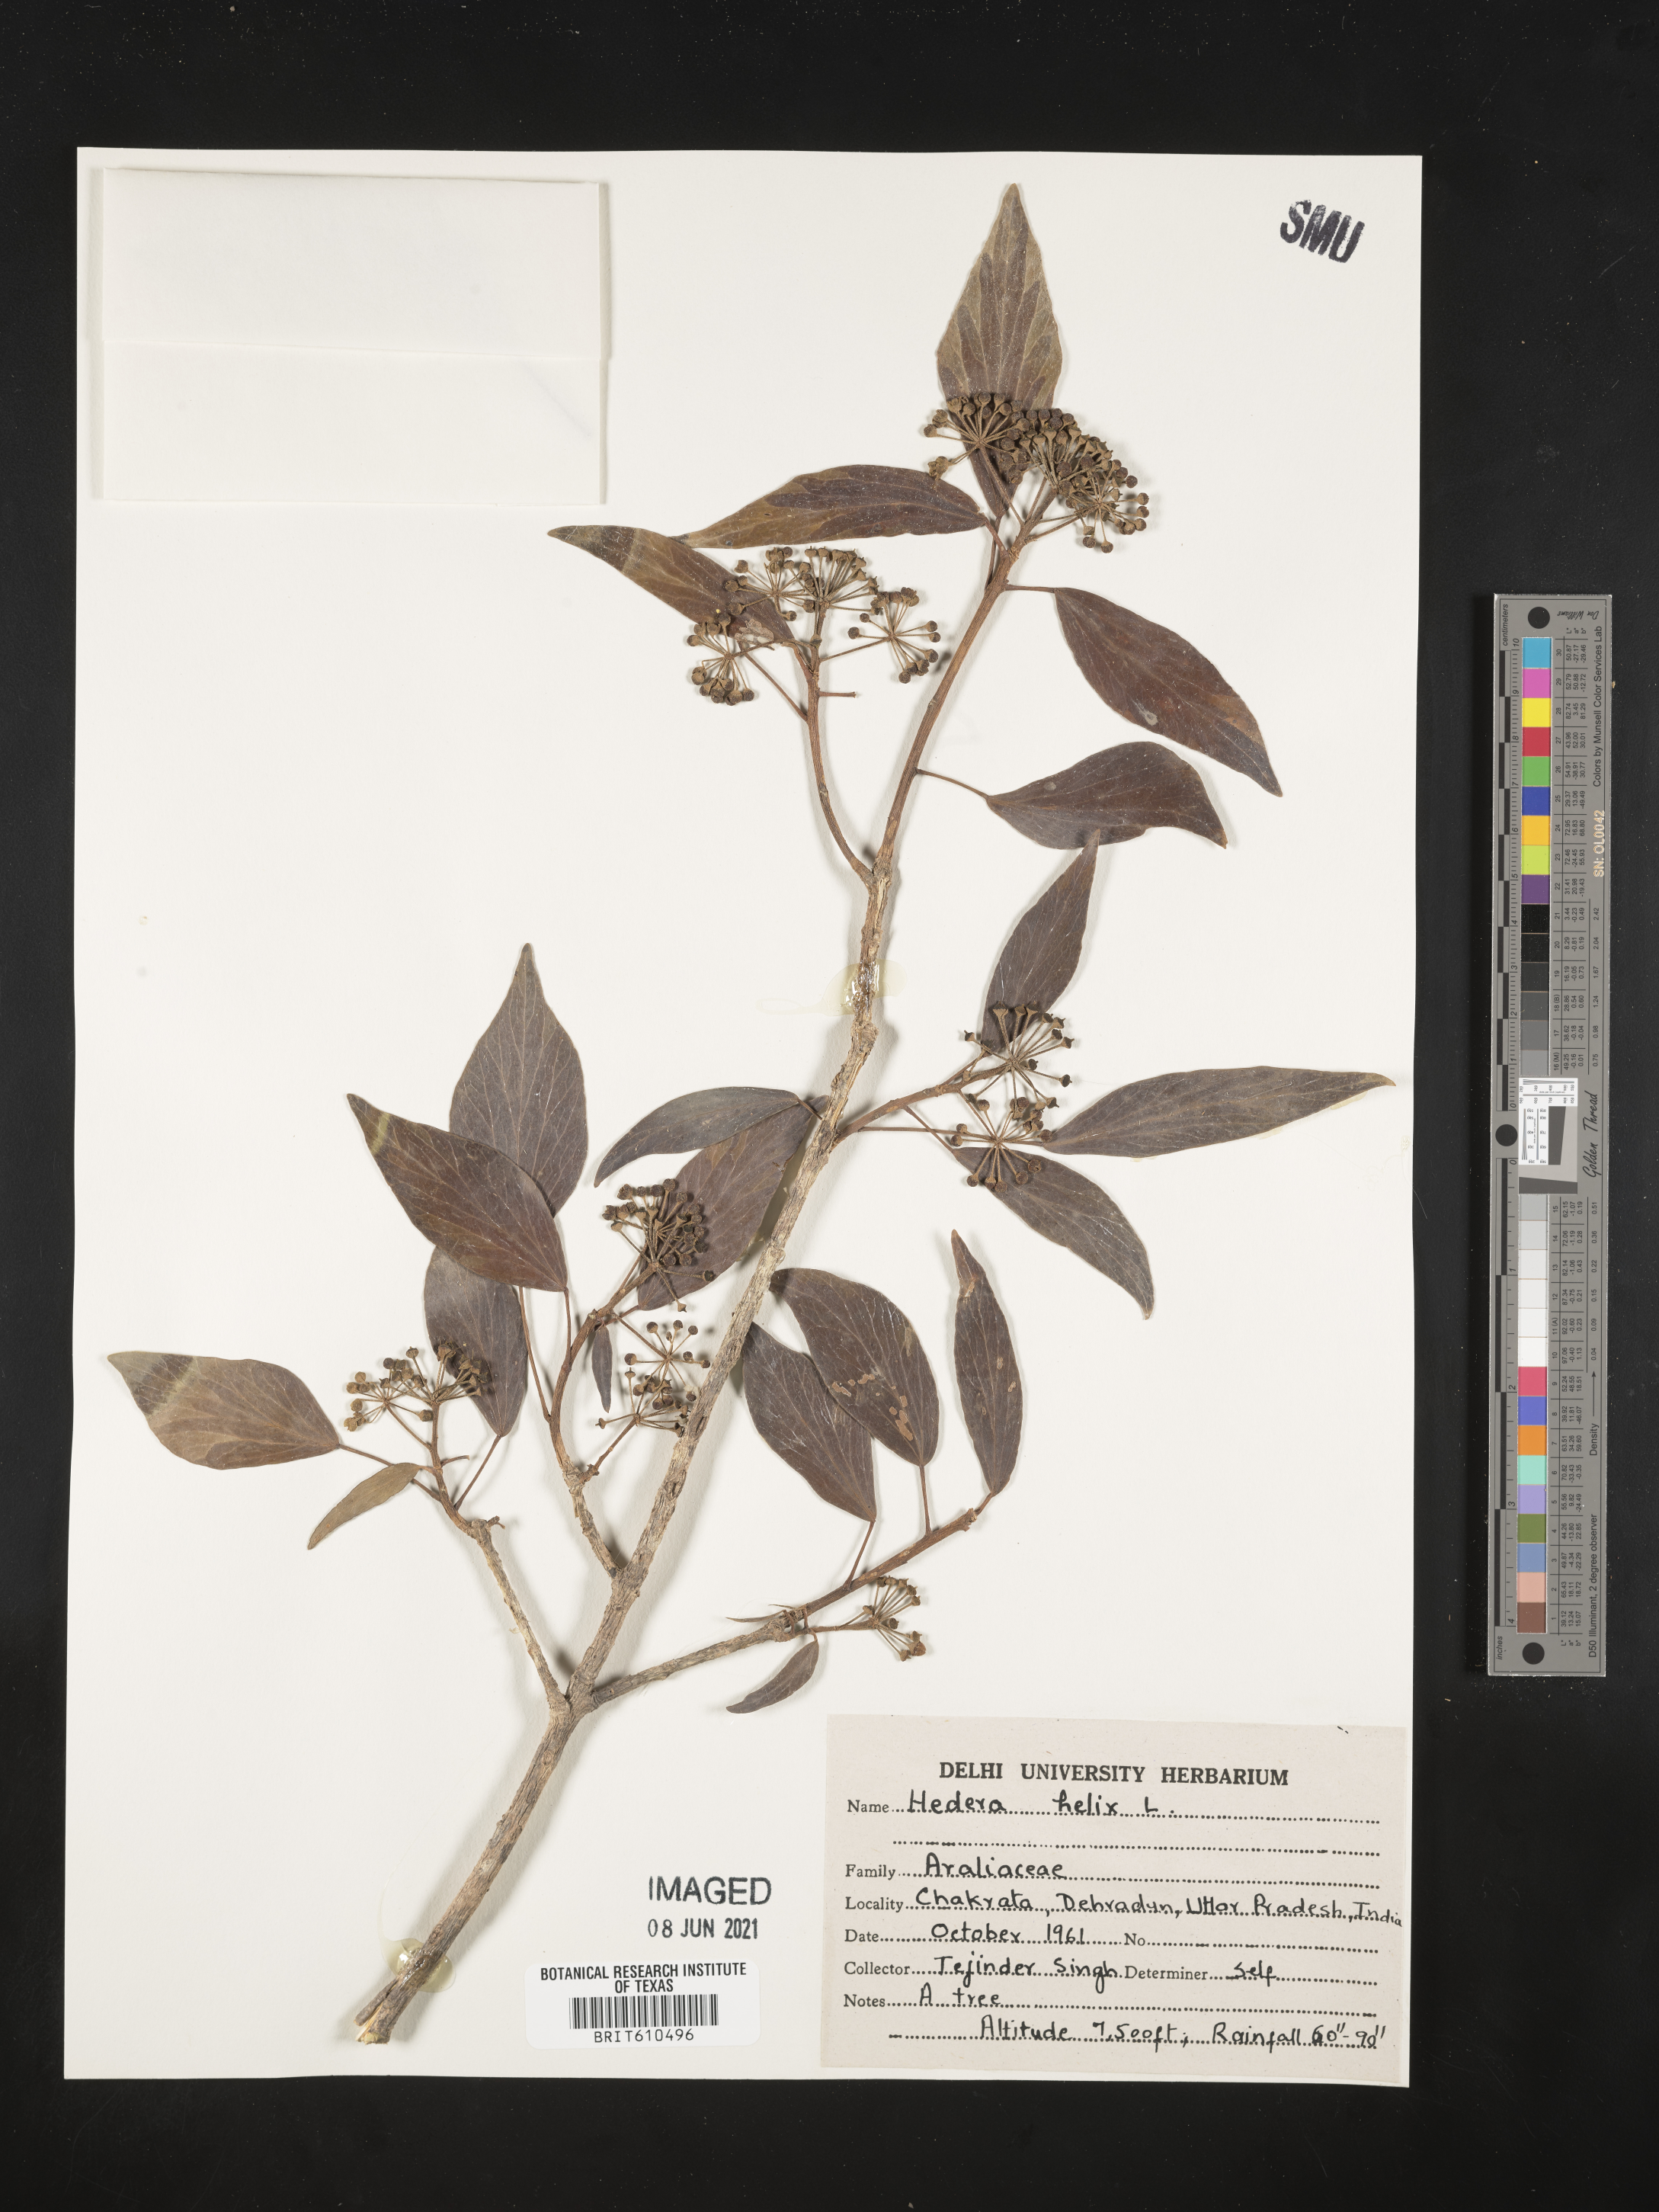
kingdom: Plantae
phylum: Tracheophyta
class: Magnoliopsida
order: Apiales
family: Araliaceae
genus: Hedera
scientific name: Hedera helix
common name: Ivy
